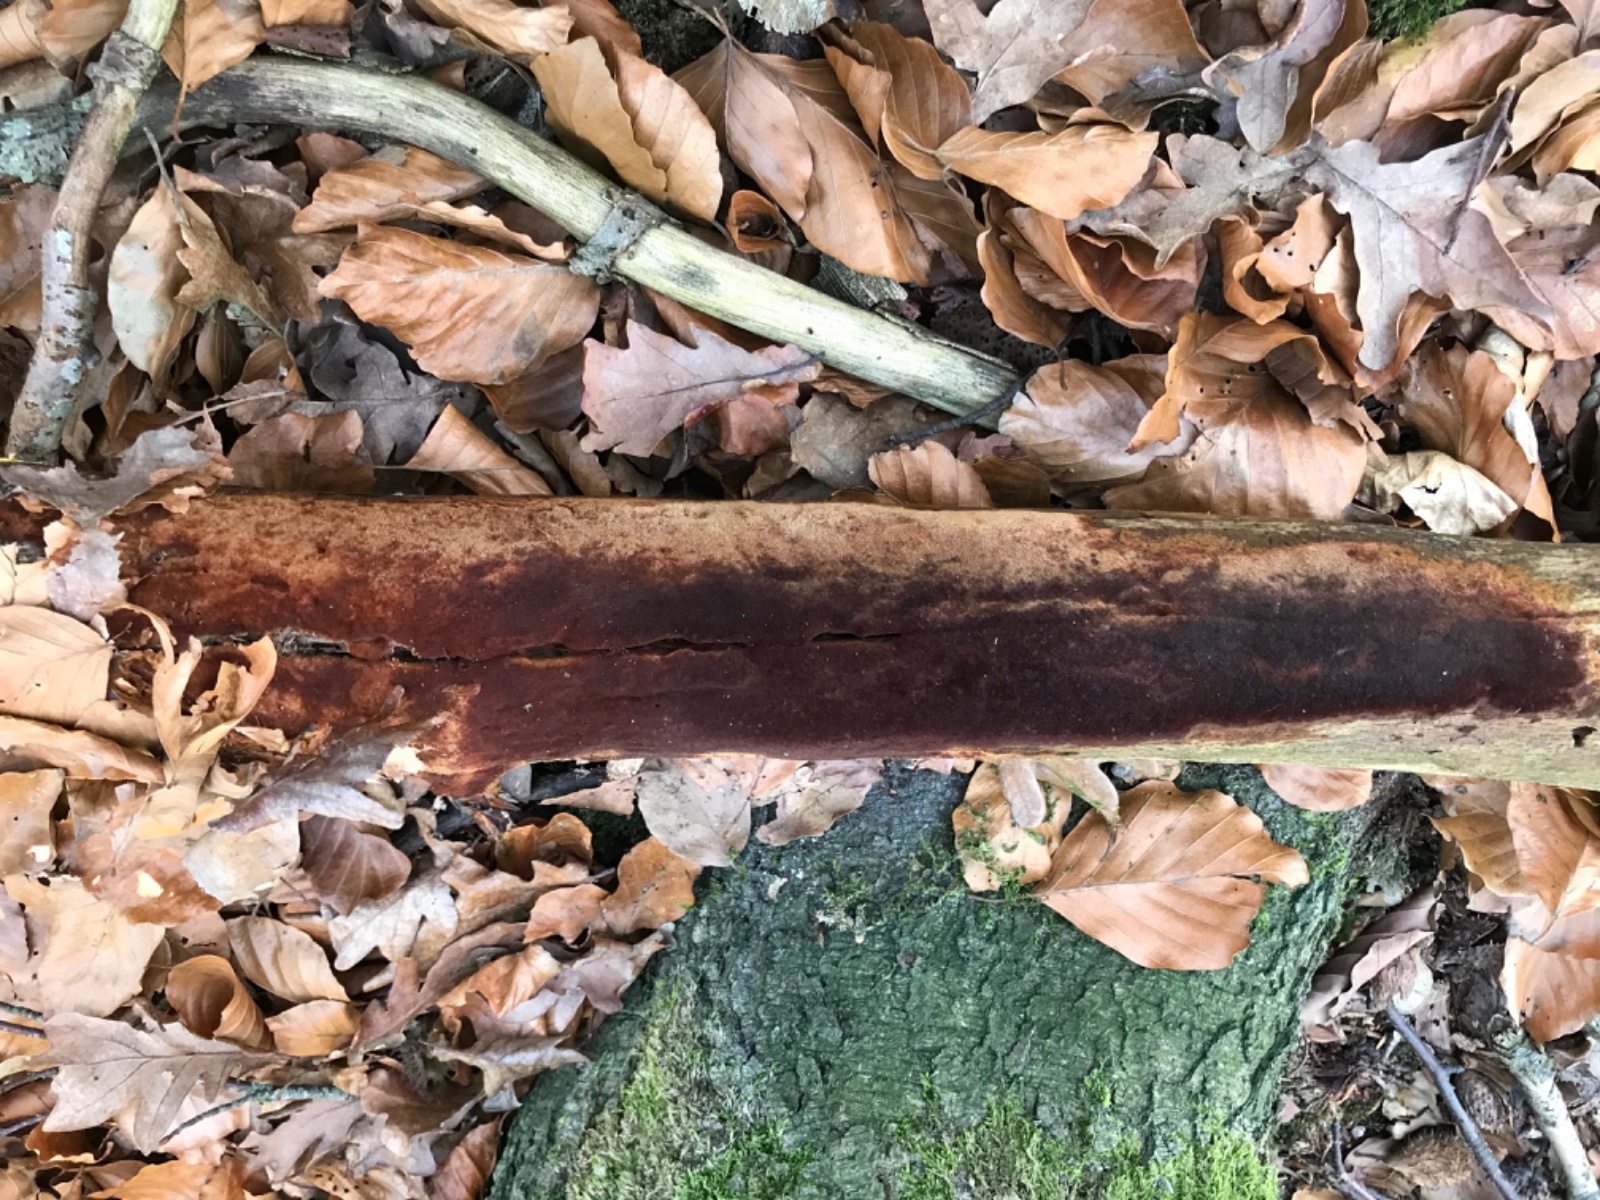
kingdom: Fungi
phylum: Basidiomycota
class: Agaricomycetes
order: Hymenochaetales
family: Hymenochaetaceae
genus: Fuscoporia
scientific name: Fuscoporia ferrea
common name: skorpe-ildporesvamp
